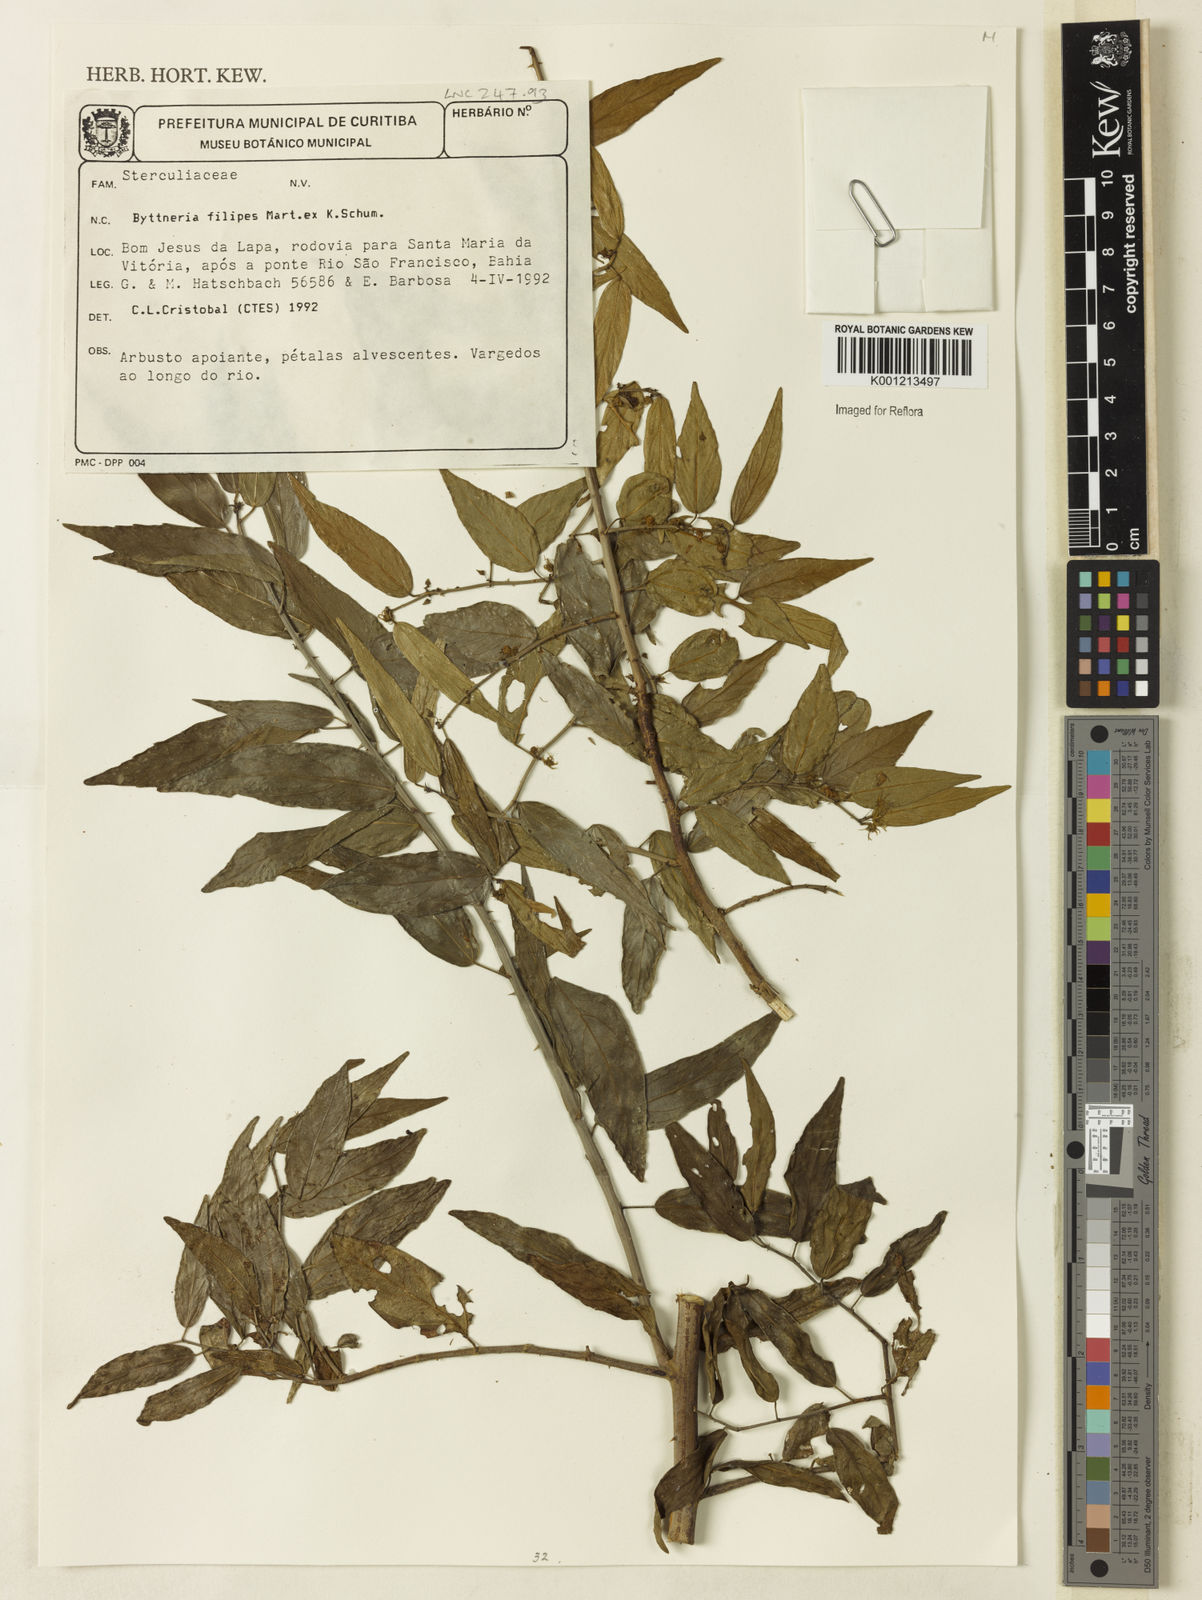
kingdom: Plantae
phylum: Tracheophyta
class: Magnoliopsida
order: Malvales
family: Malvaceae
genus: Byttneria
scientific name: Byttneria filipes
